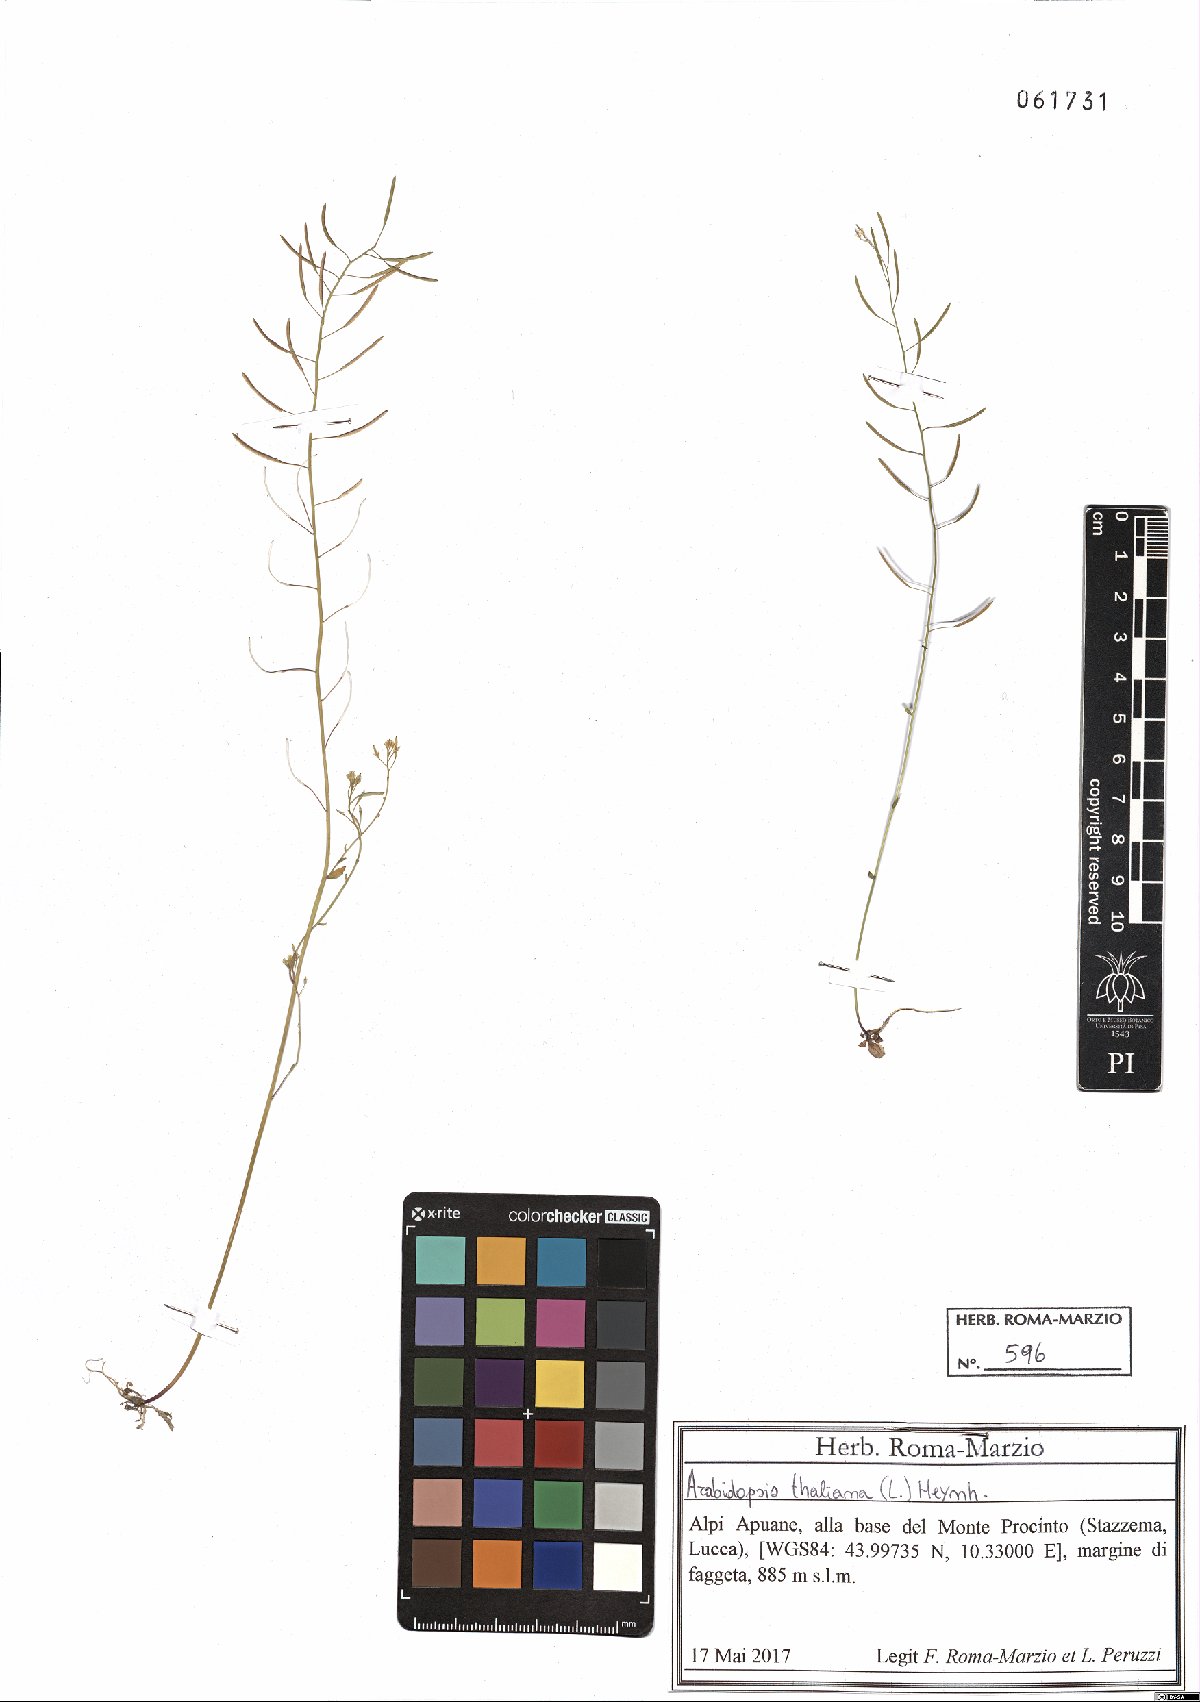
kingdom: Plantae
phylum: Tracheophyta
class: Magnoliopsida
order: Brassicales
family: Brassicaceae
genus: Arabidopsis
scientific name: Arabidopsis thaliana
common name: Thale cress
